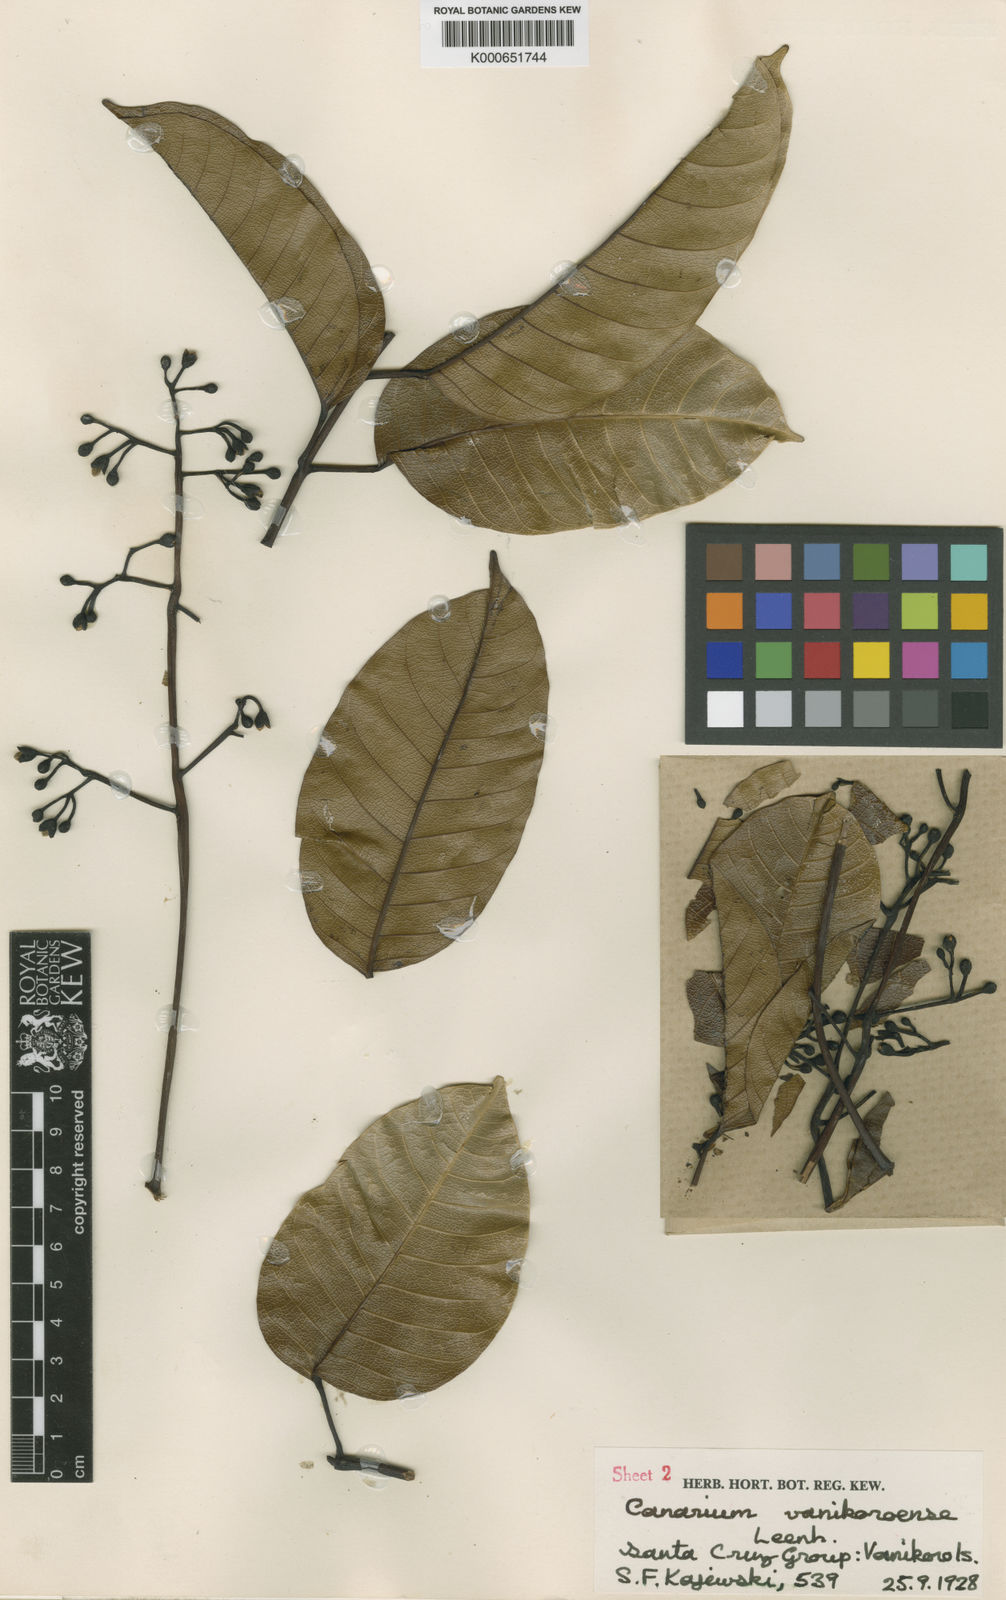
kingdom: Plantae
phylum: Tracheophyta
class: Magnoliopsida
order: Sapindales
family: Burseraceae
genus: Canarium
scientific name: Canarium vanikoroense
